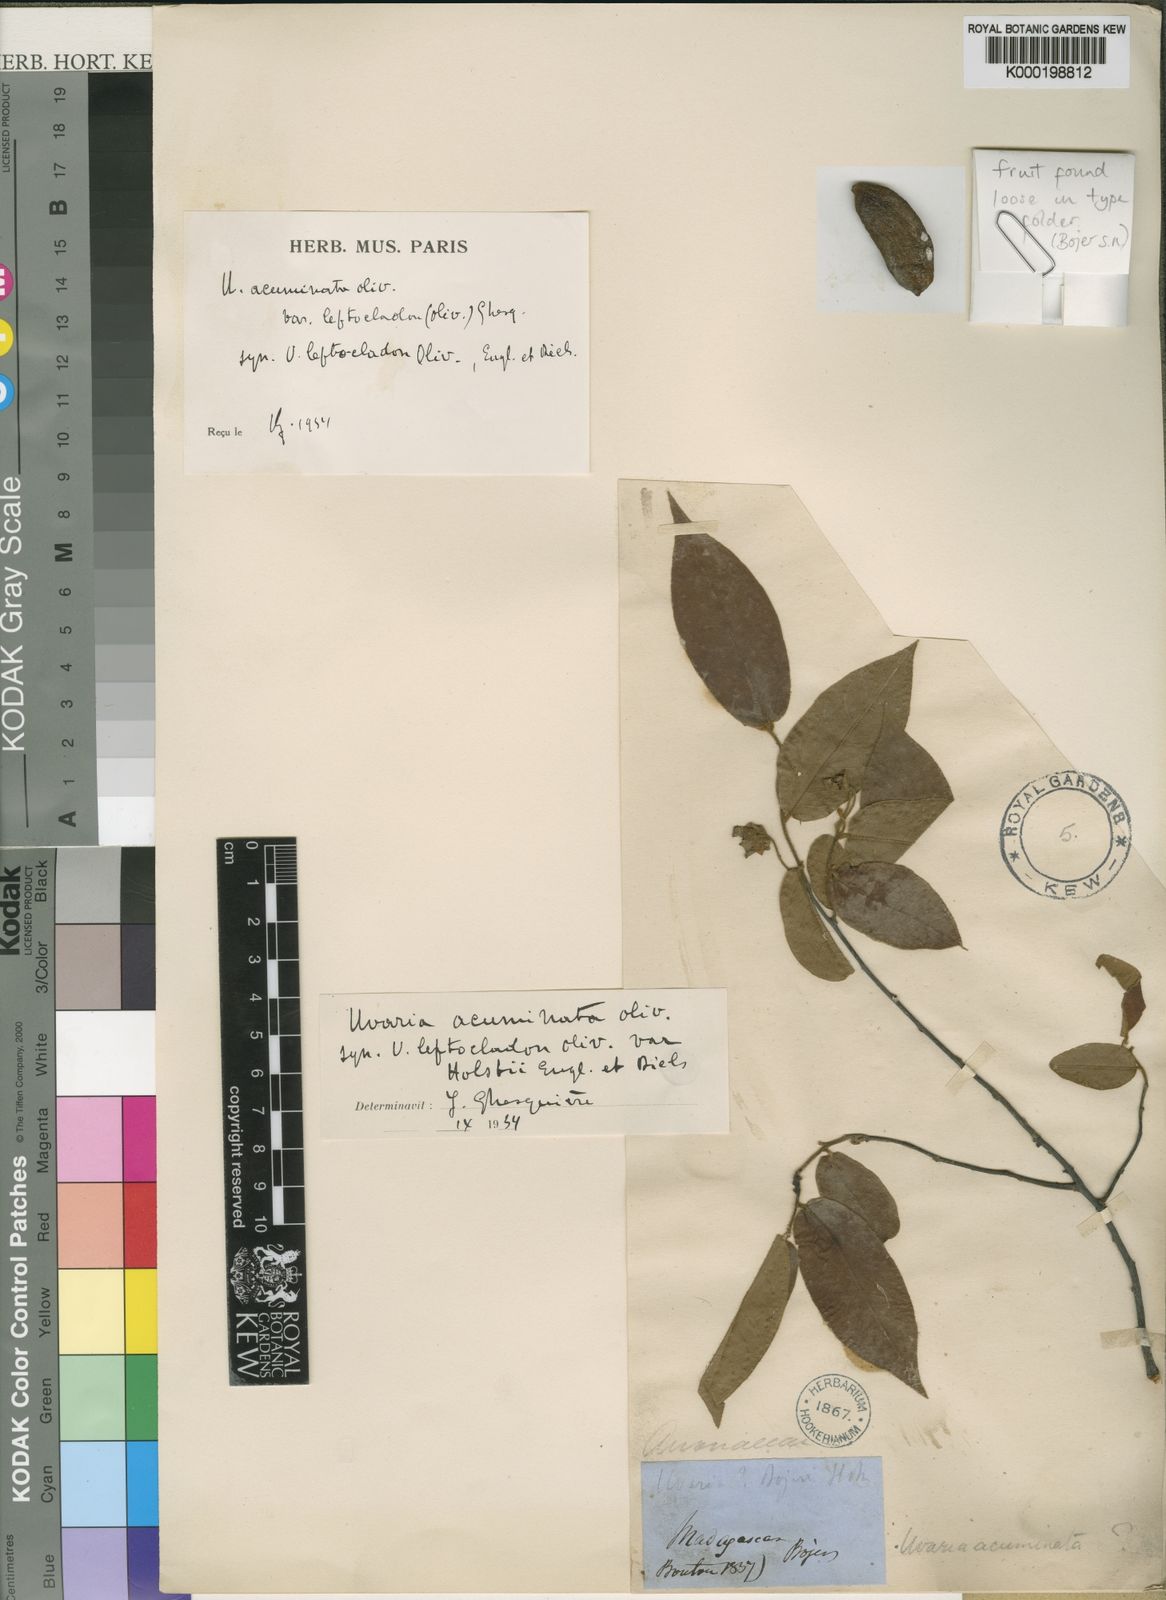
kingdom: Plantae
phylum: Tracheophyta
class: Magnoliopsida
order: Magnoliales
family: Annonaceae
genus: Uvaria
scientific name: Uvaria acuminata
